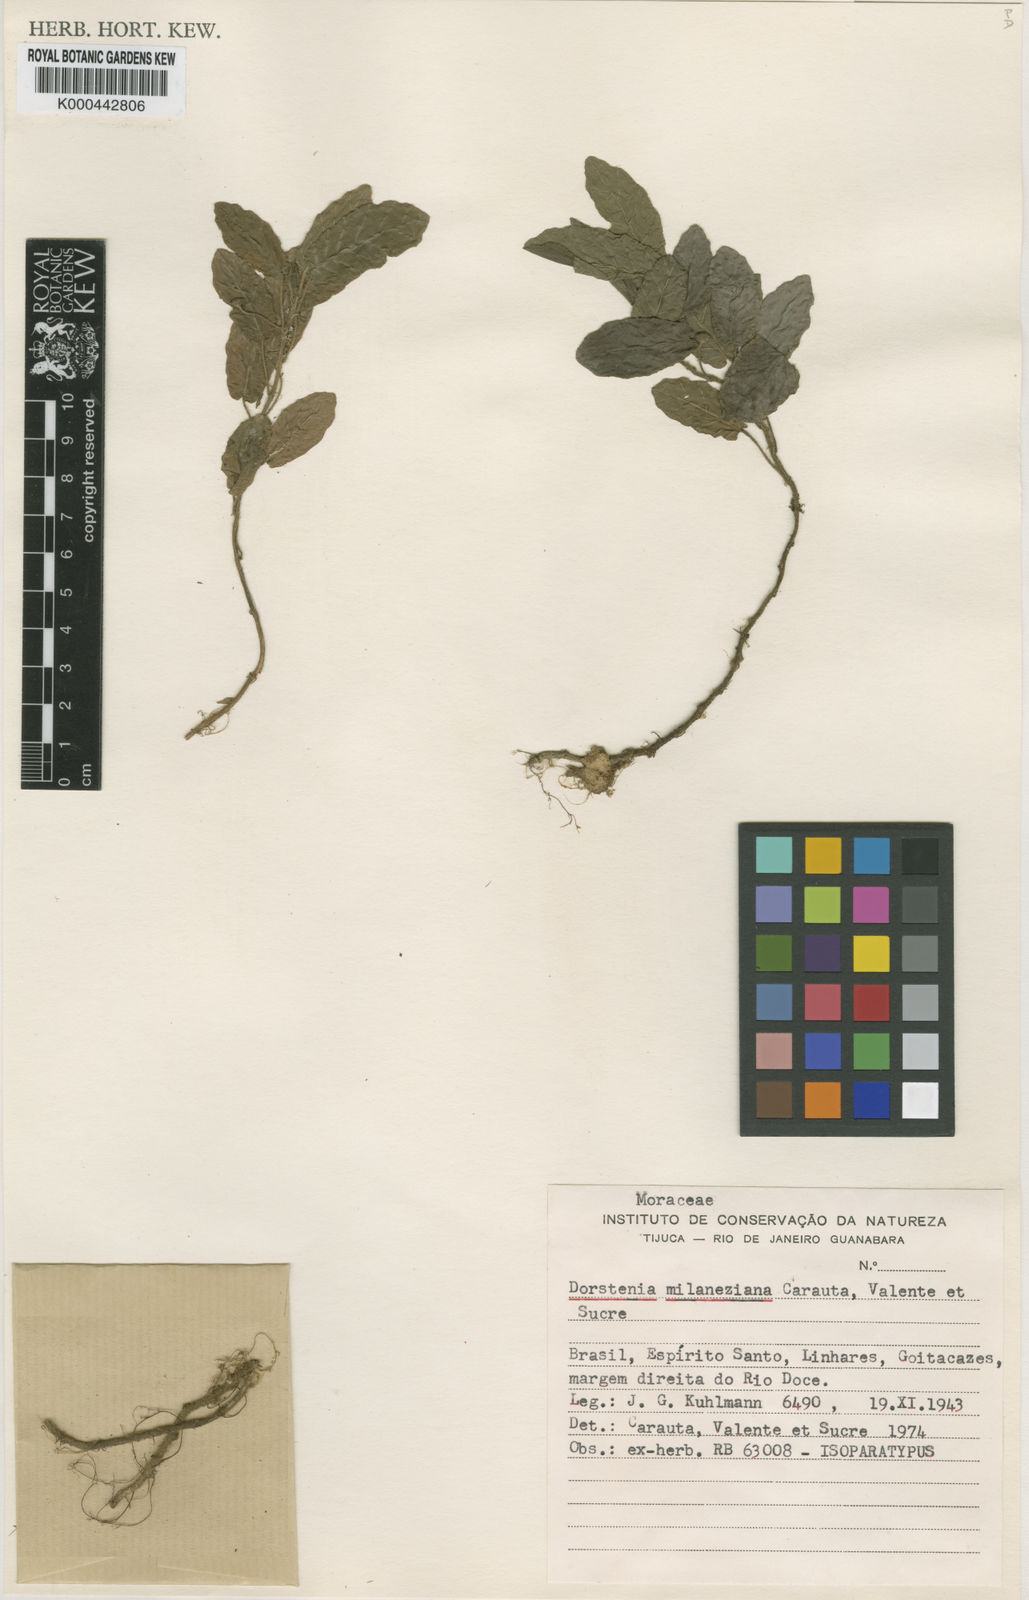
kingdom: Plantae
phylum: Tracheophyta
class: Magnoliopsida
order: Rosales
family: Moraceae
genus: Dorstenia
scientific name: Dorstenia milaneziana
